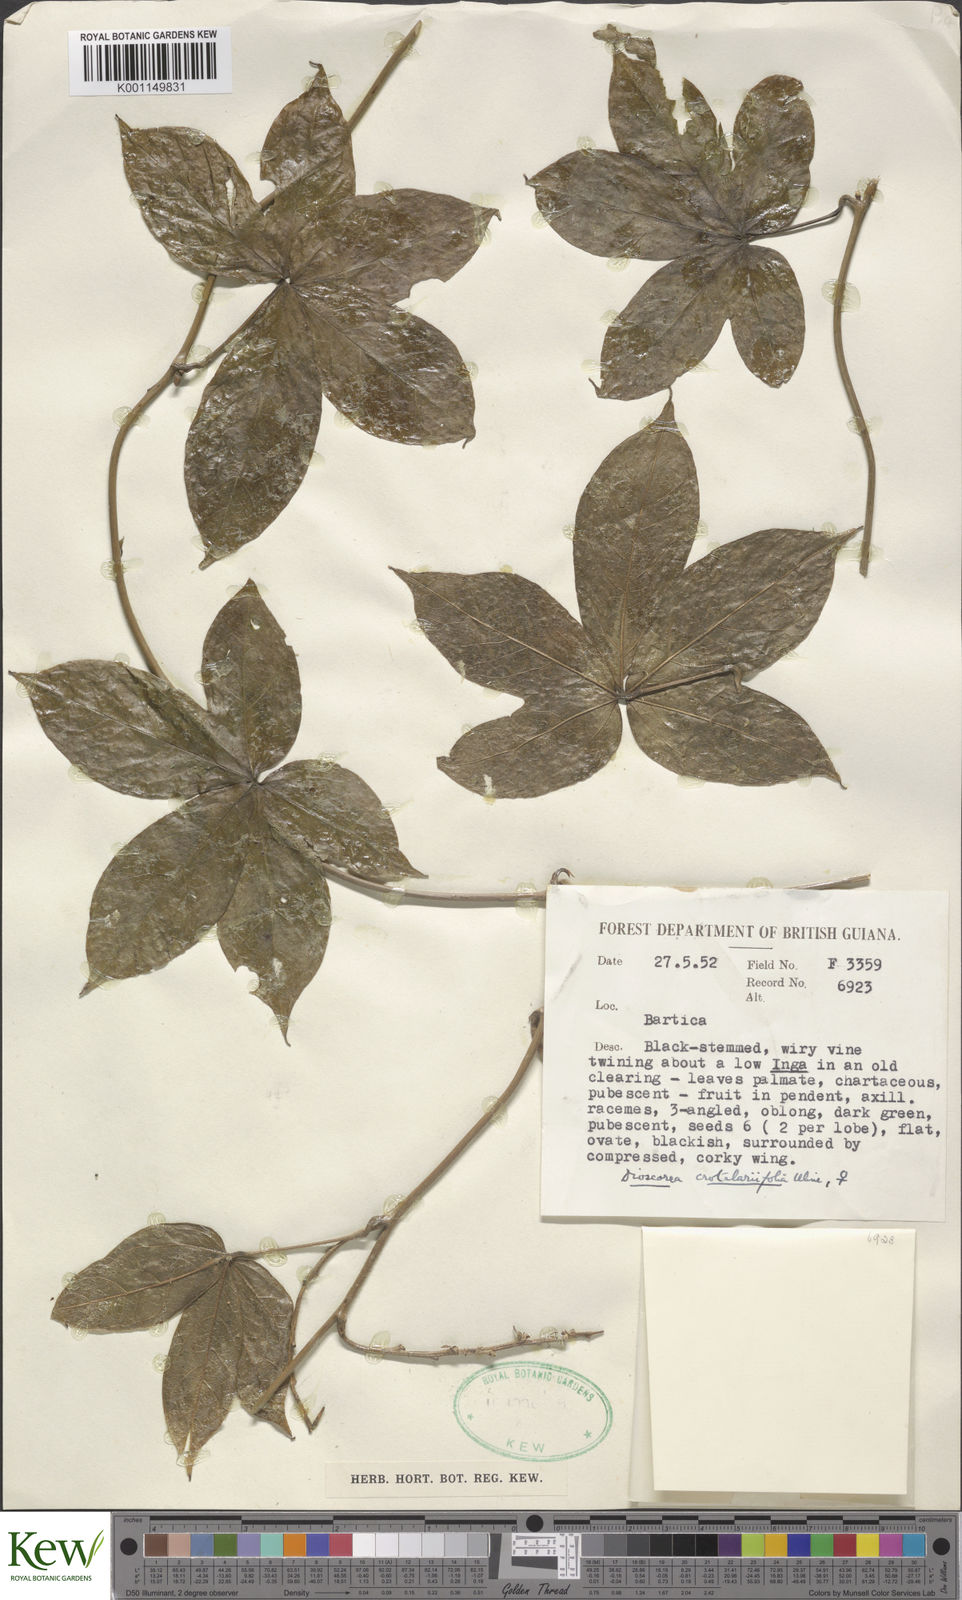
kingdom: Plantae
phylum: Tracheophyta
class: Liliopsida
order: Dioscoreales
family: Dioscoreaceae
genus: Dioscorea
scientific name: Dioscorea crotalariifolia
